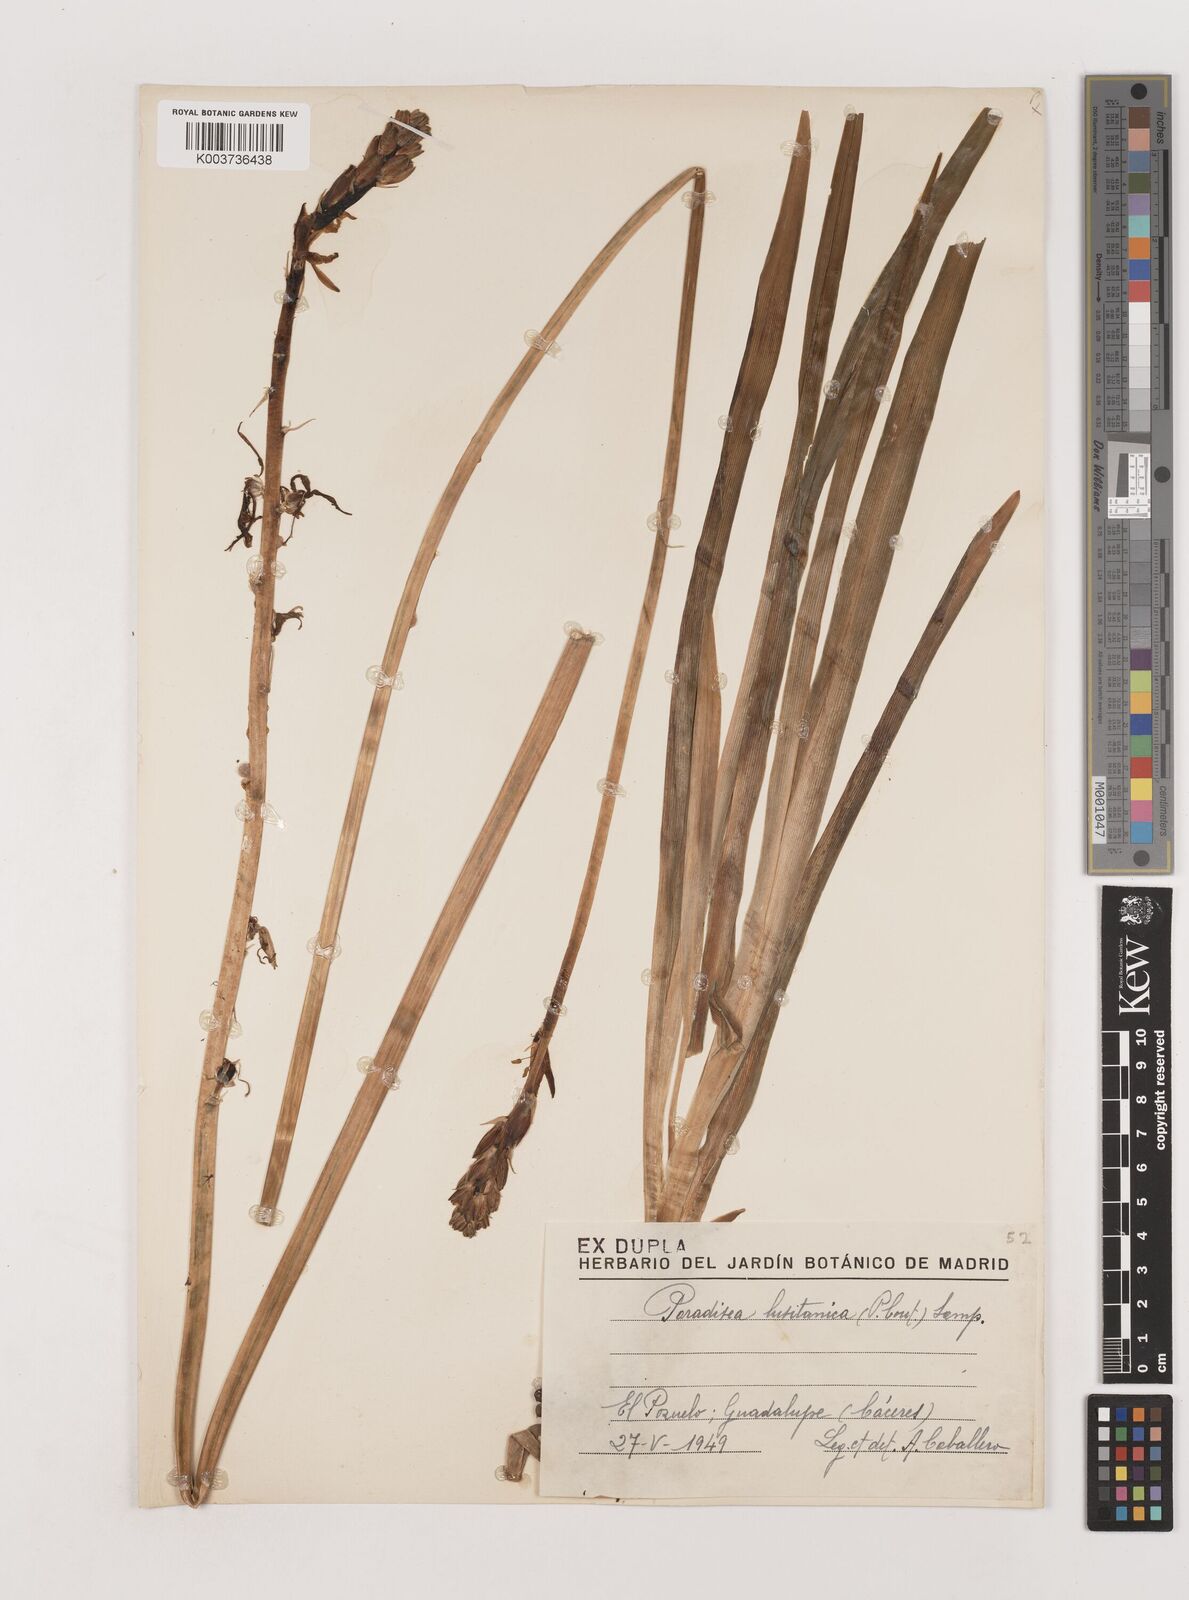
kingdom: Plantae
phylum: Tracheophyta
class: Liliopsida
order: Asparagales
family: Asparagaceae
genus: Paradisea
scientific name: Paradisea lusitanica
